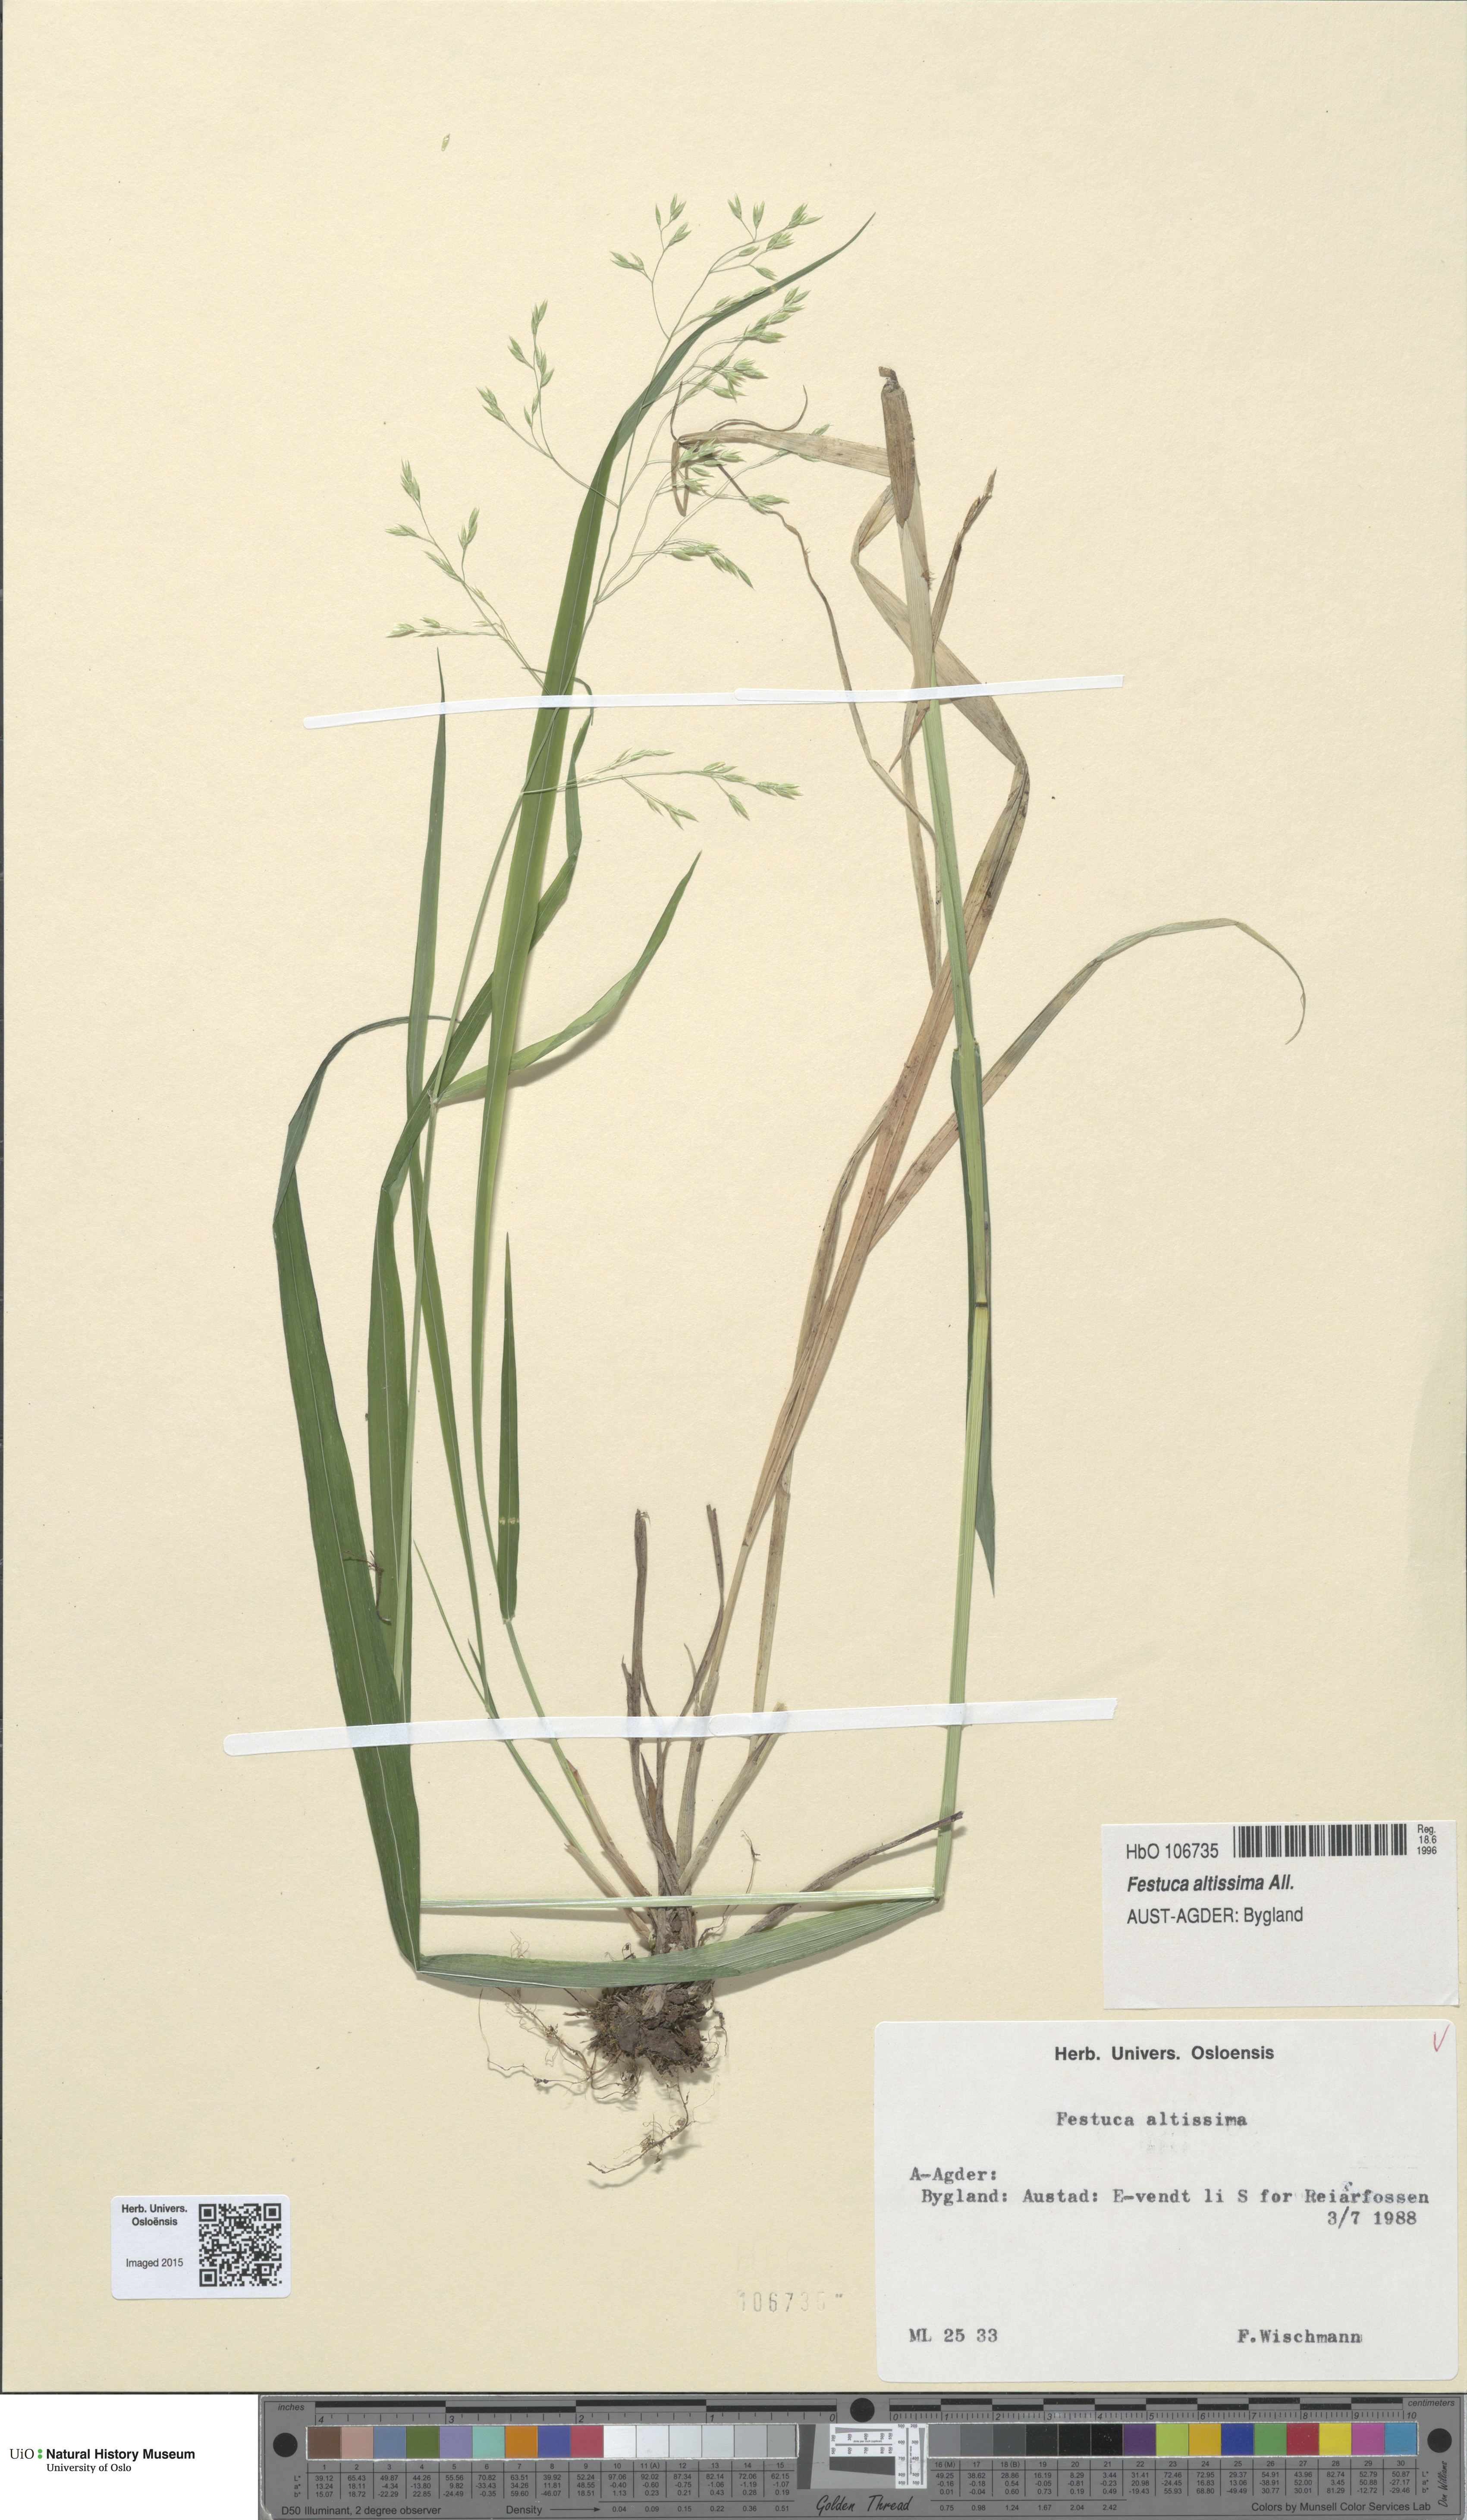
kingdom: Plantae
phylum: Tracheophyta
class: Liliopsida
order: Poales
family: Poaceae
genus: Festuca
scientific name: Festuca altissima
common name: Wood fescue
